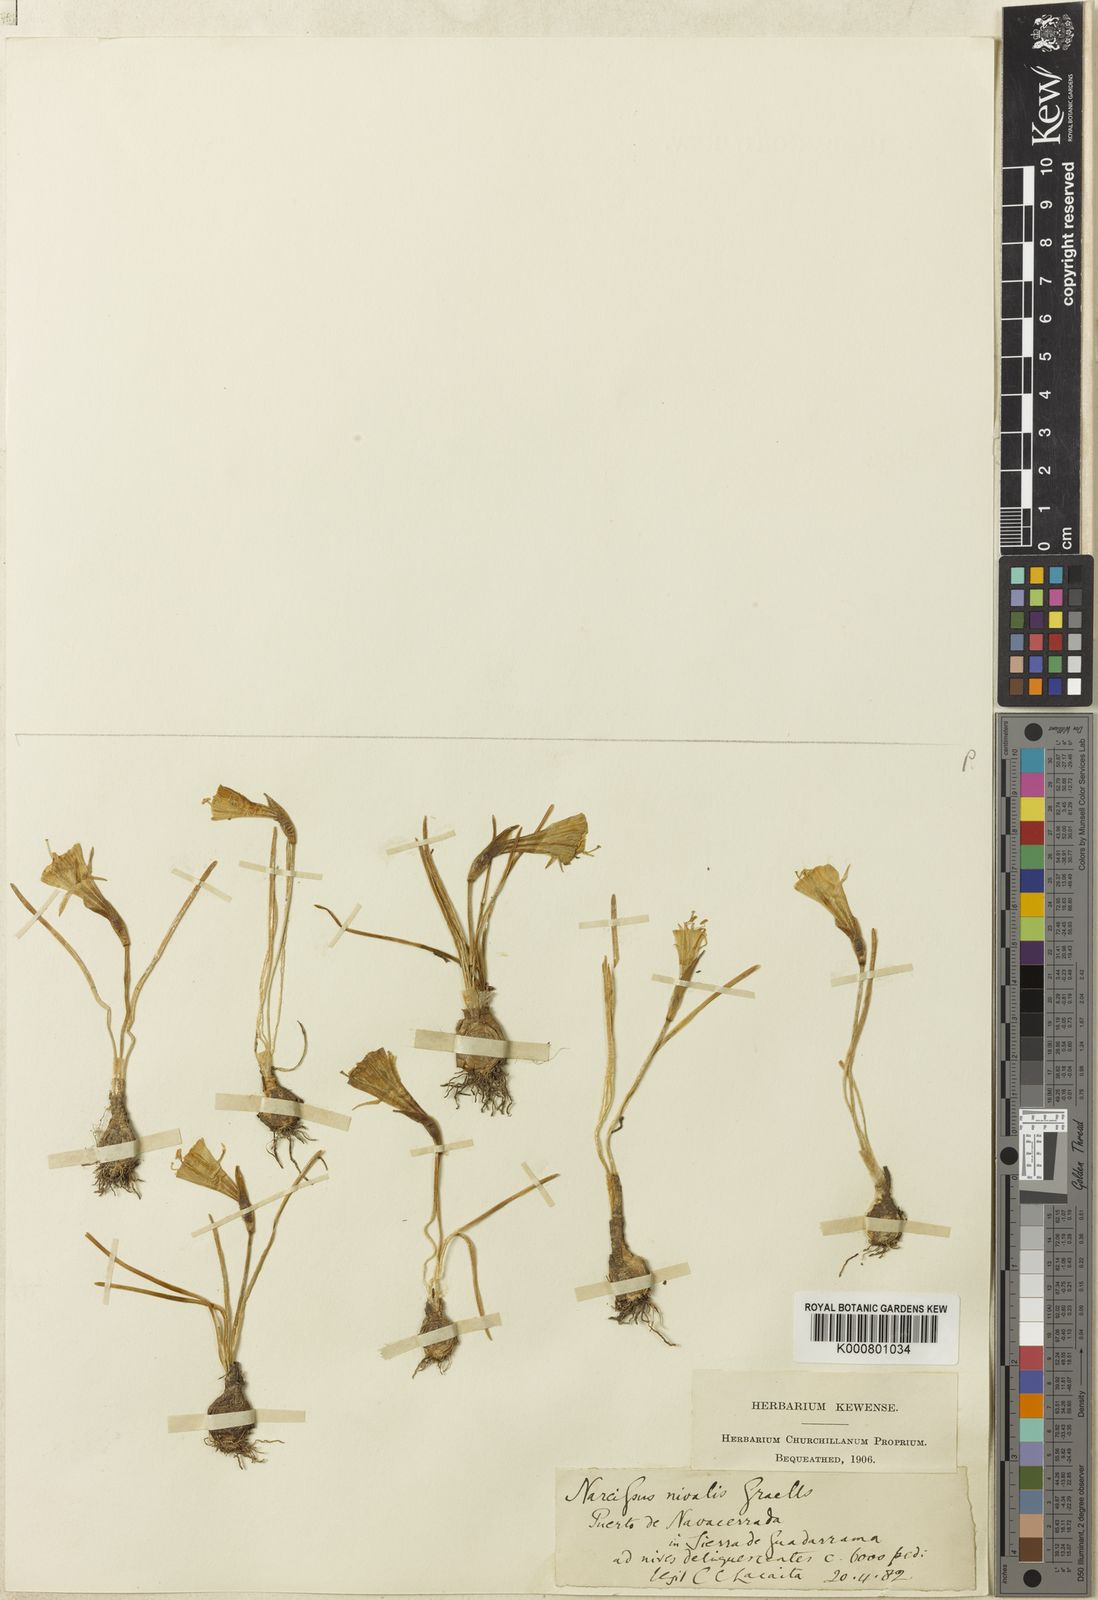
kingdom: Plantae
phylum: Tracheophyta
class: Liliopsida
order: Asparagales
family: Amaryllidaceae
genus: Narcissus
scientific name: Narcissus bulbocodium
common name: Hoop-petticoat daffodil
